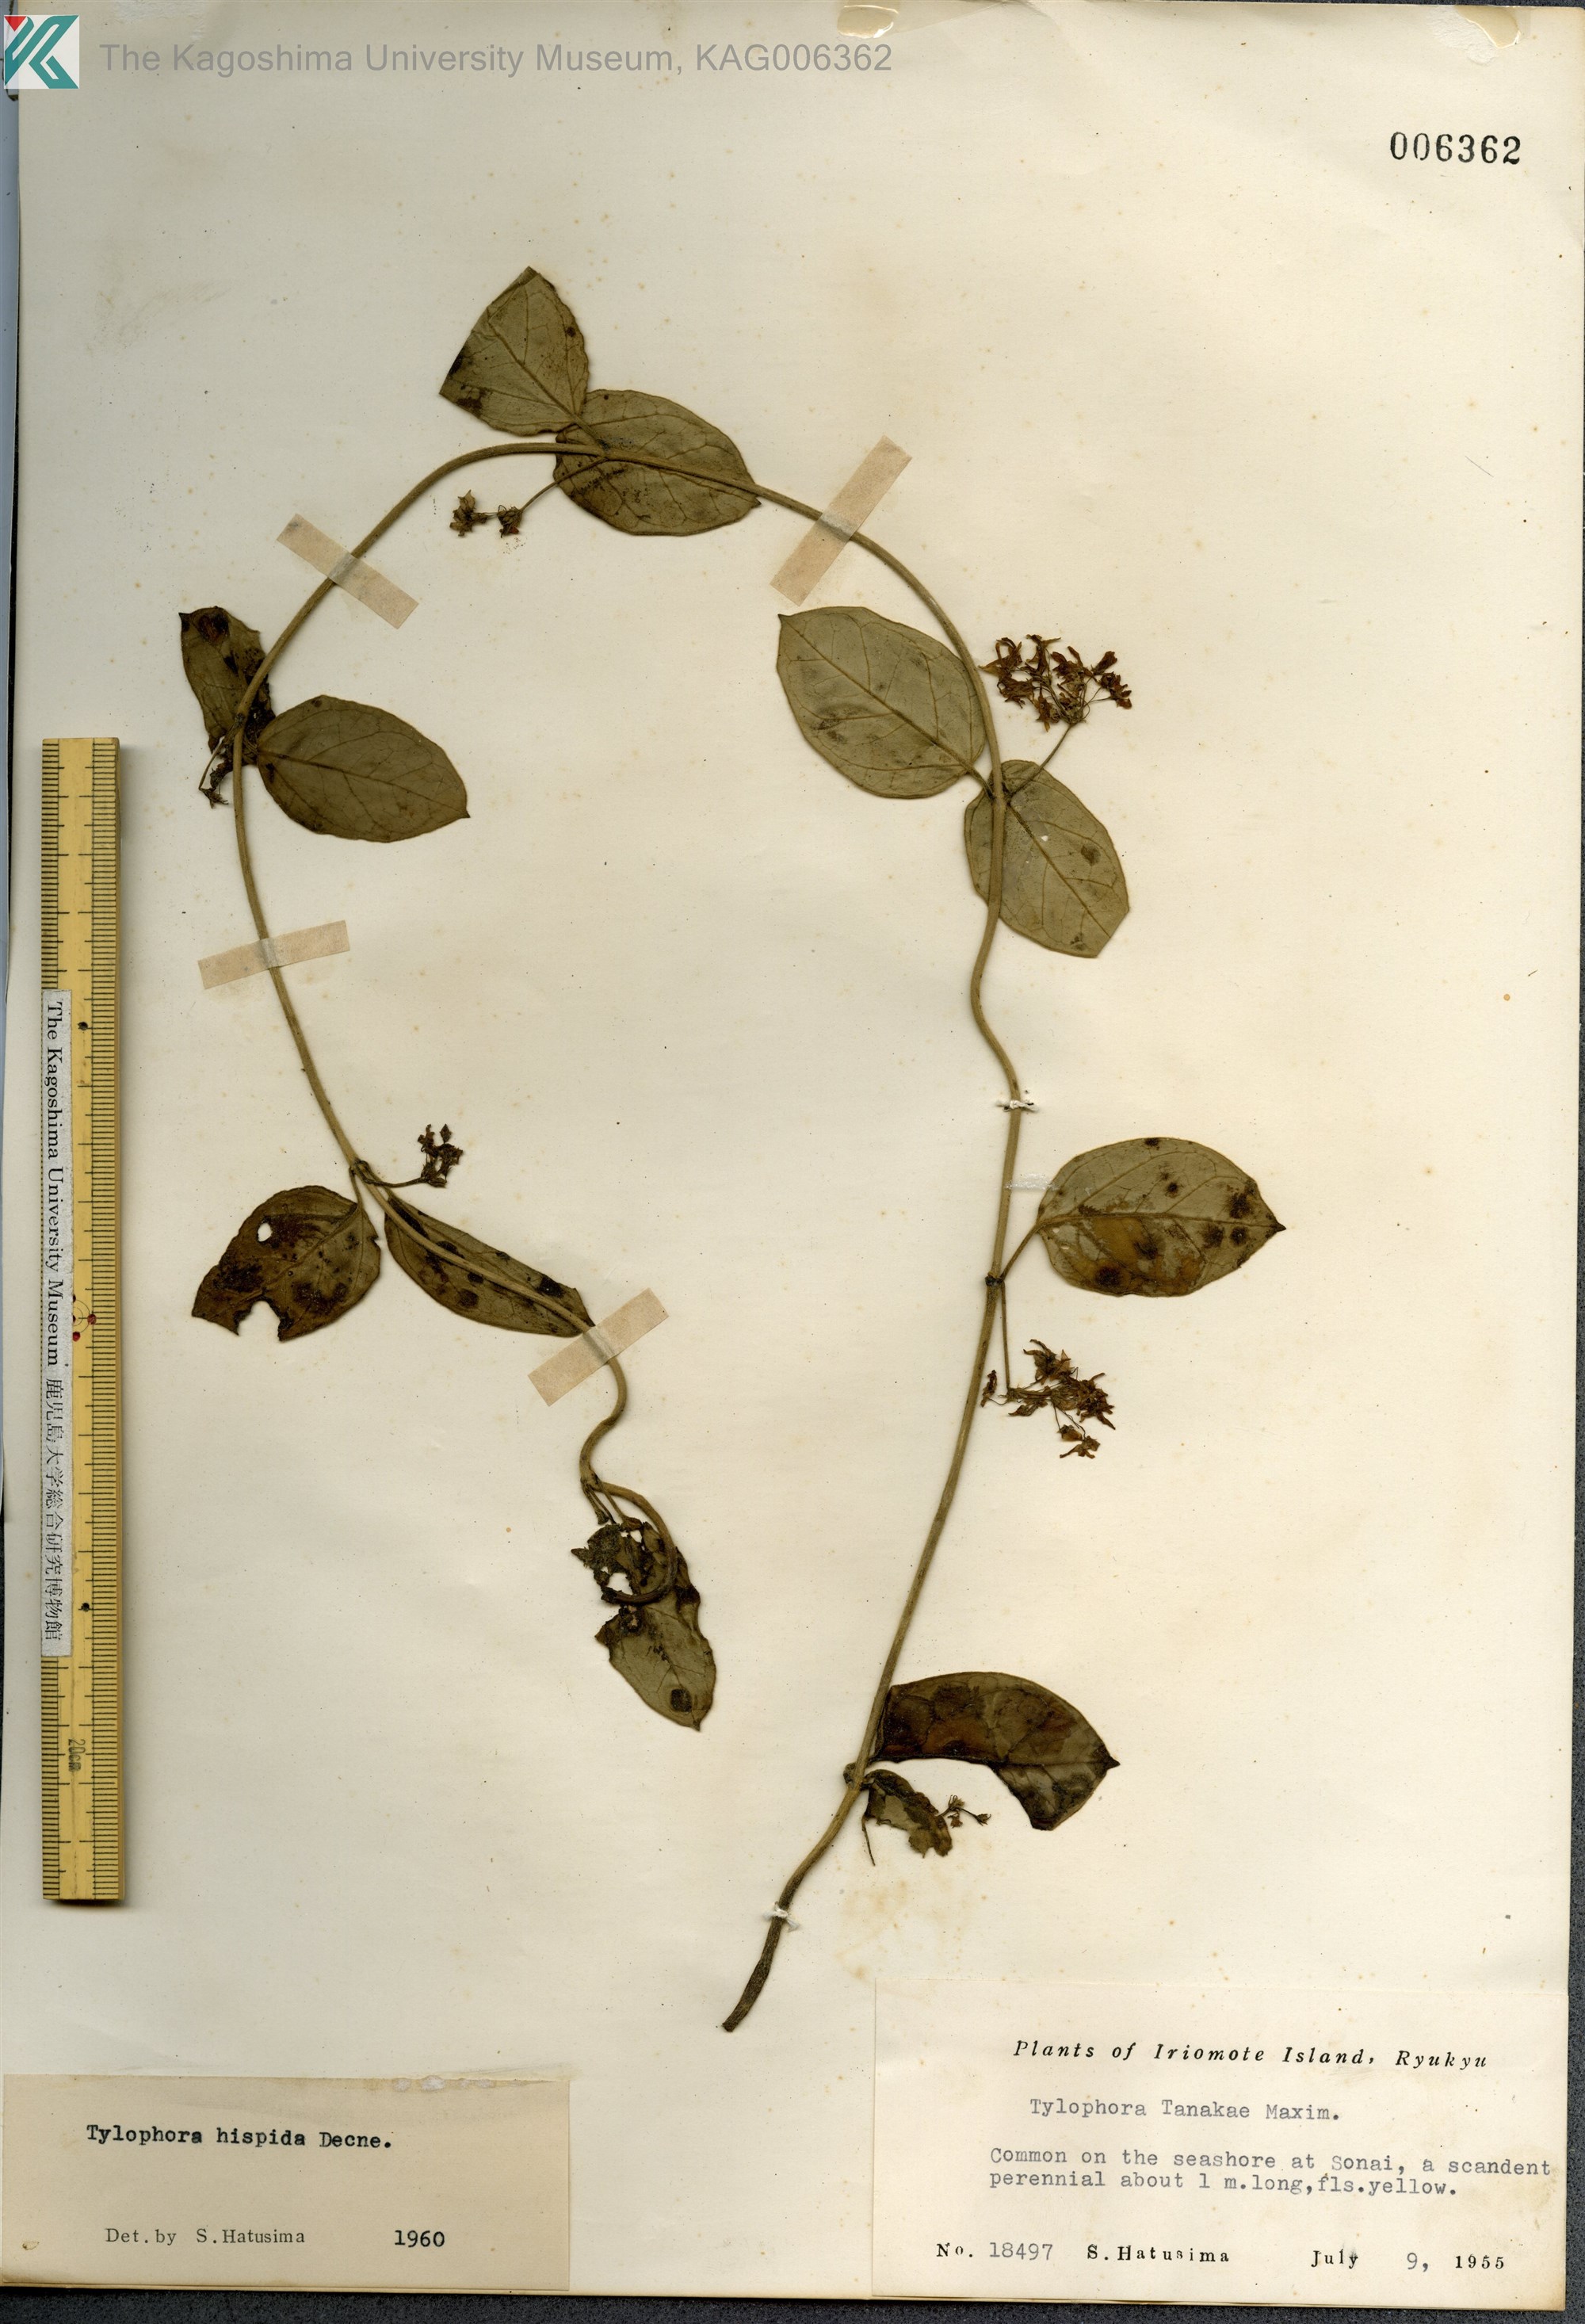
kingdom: Plantae
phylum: Tracheophyta
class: Magnoliopsida
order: Gentianales
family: Apocynaceae
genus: Vincetoxicum
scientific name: Vincetoxicum hirsutum
